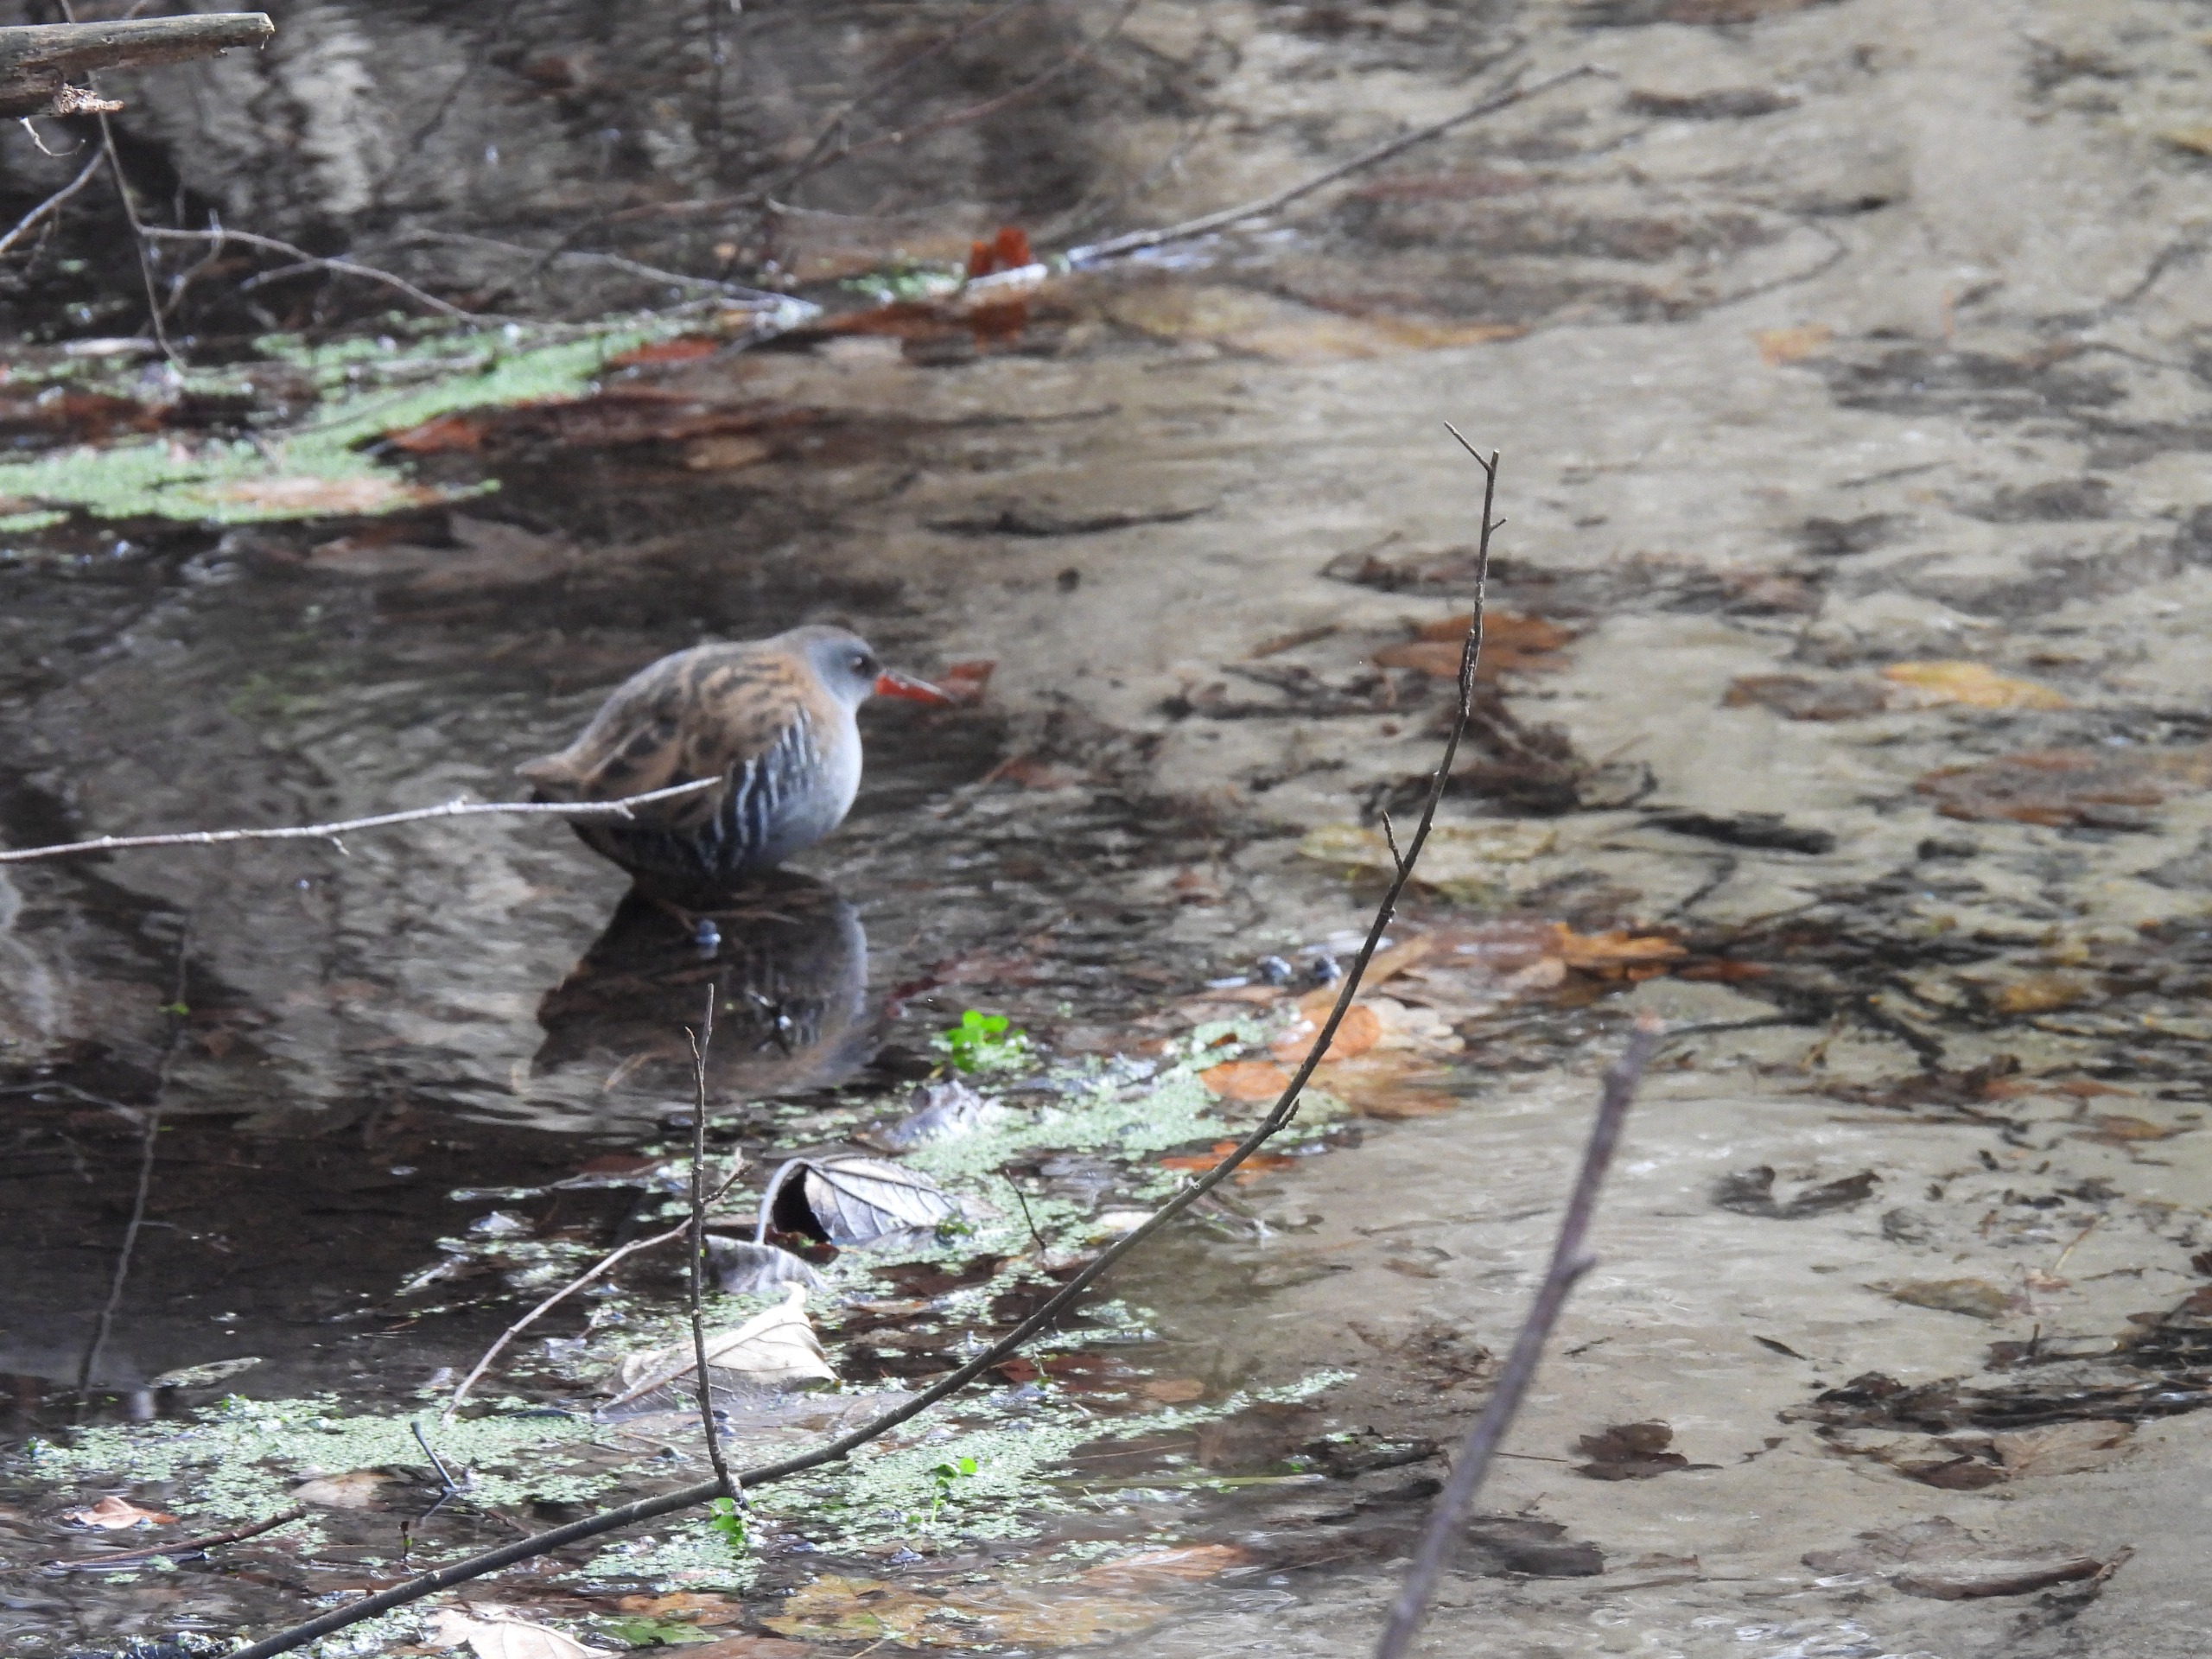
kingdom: Animalia
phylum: Chordata
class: Aves
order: Gruiformes
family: Rallidae
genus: Rallus
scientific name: Rallus aquaticus
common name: Vandrikse
